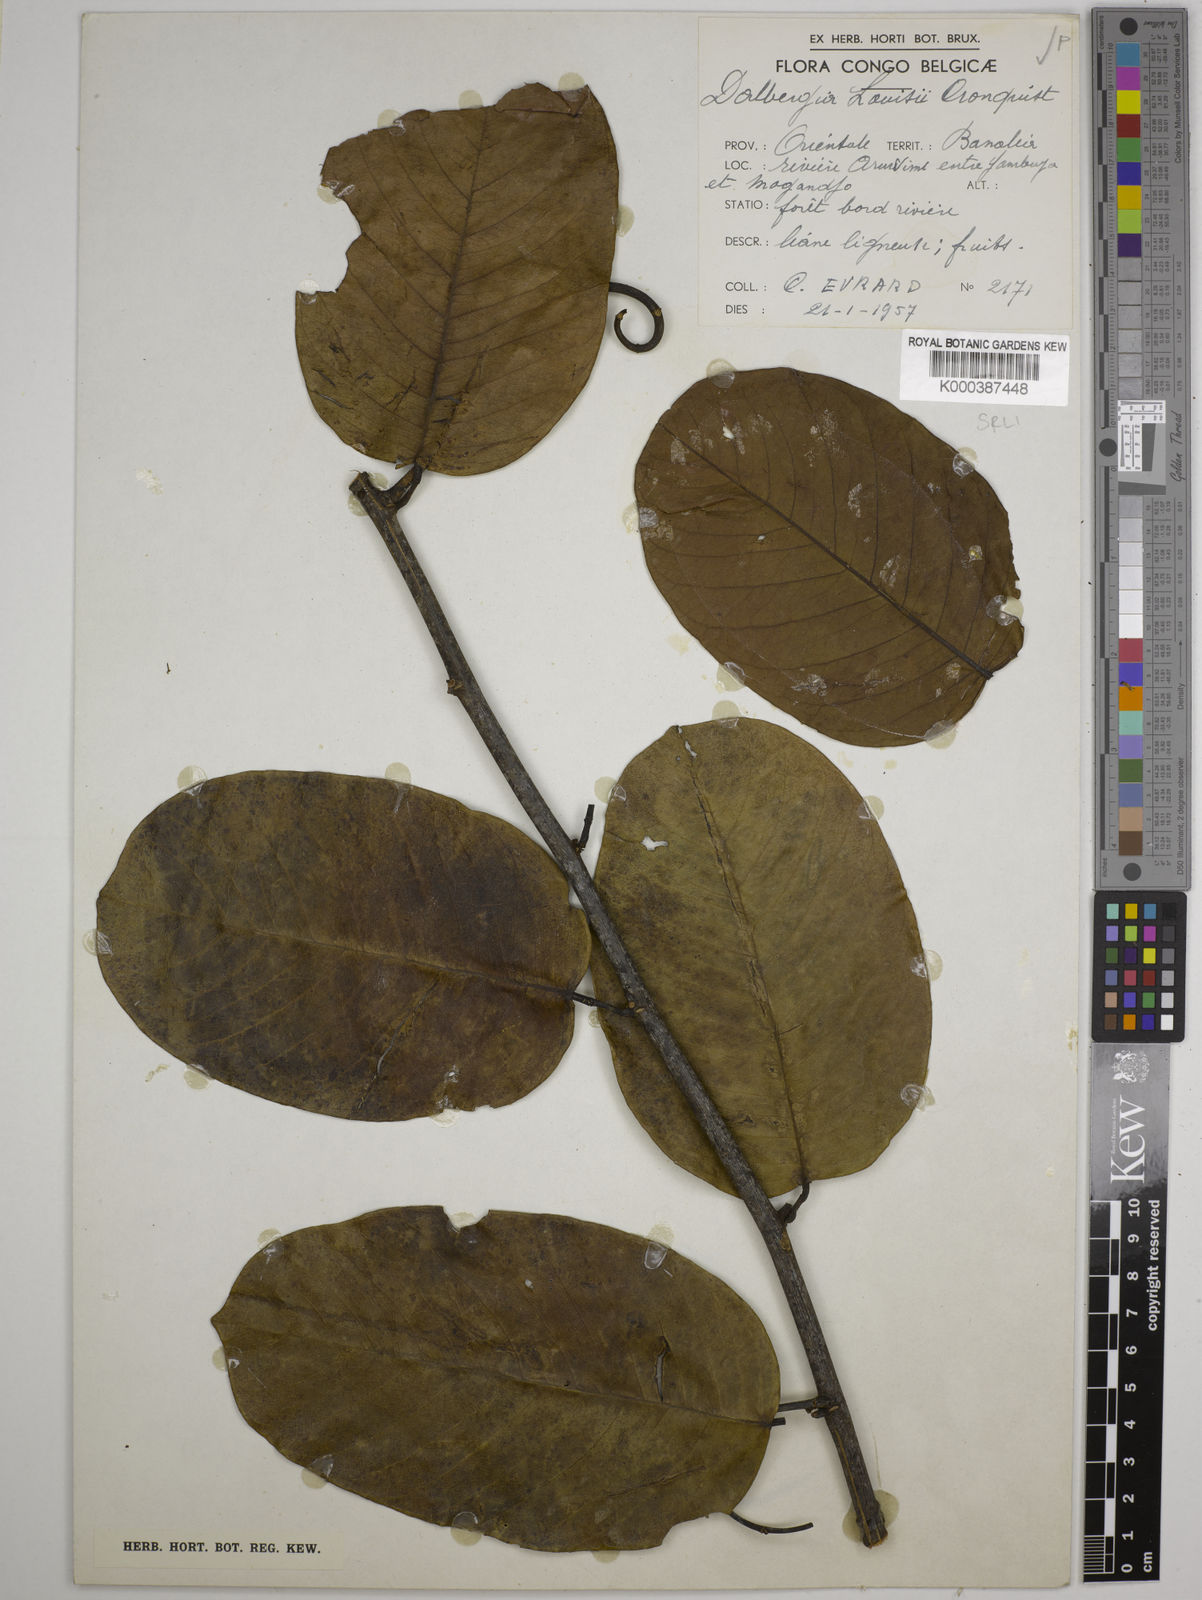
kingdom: Plantae
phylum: Tracheophyta
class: Magnoliopsida
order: Fabales
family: Fabaceae
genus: Dalbergia
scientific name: Dalbergia louisii
